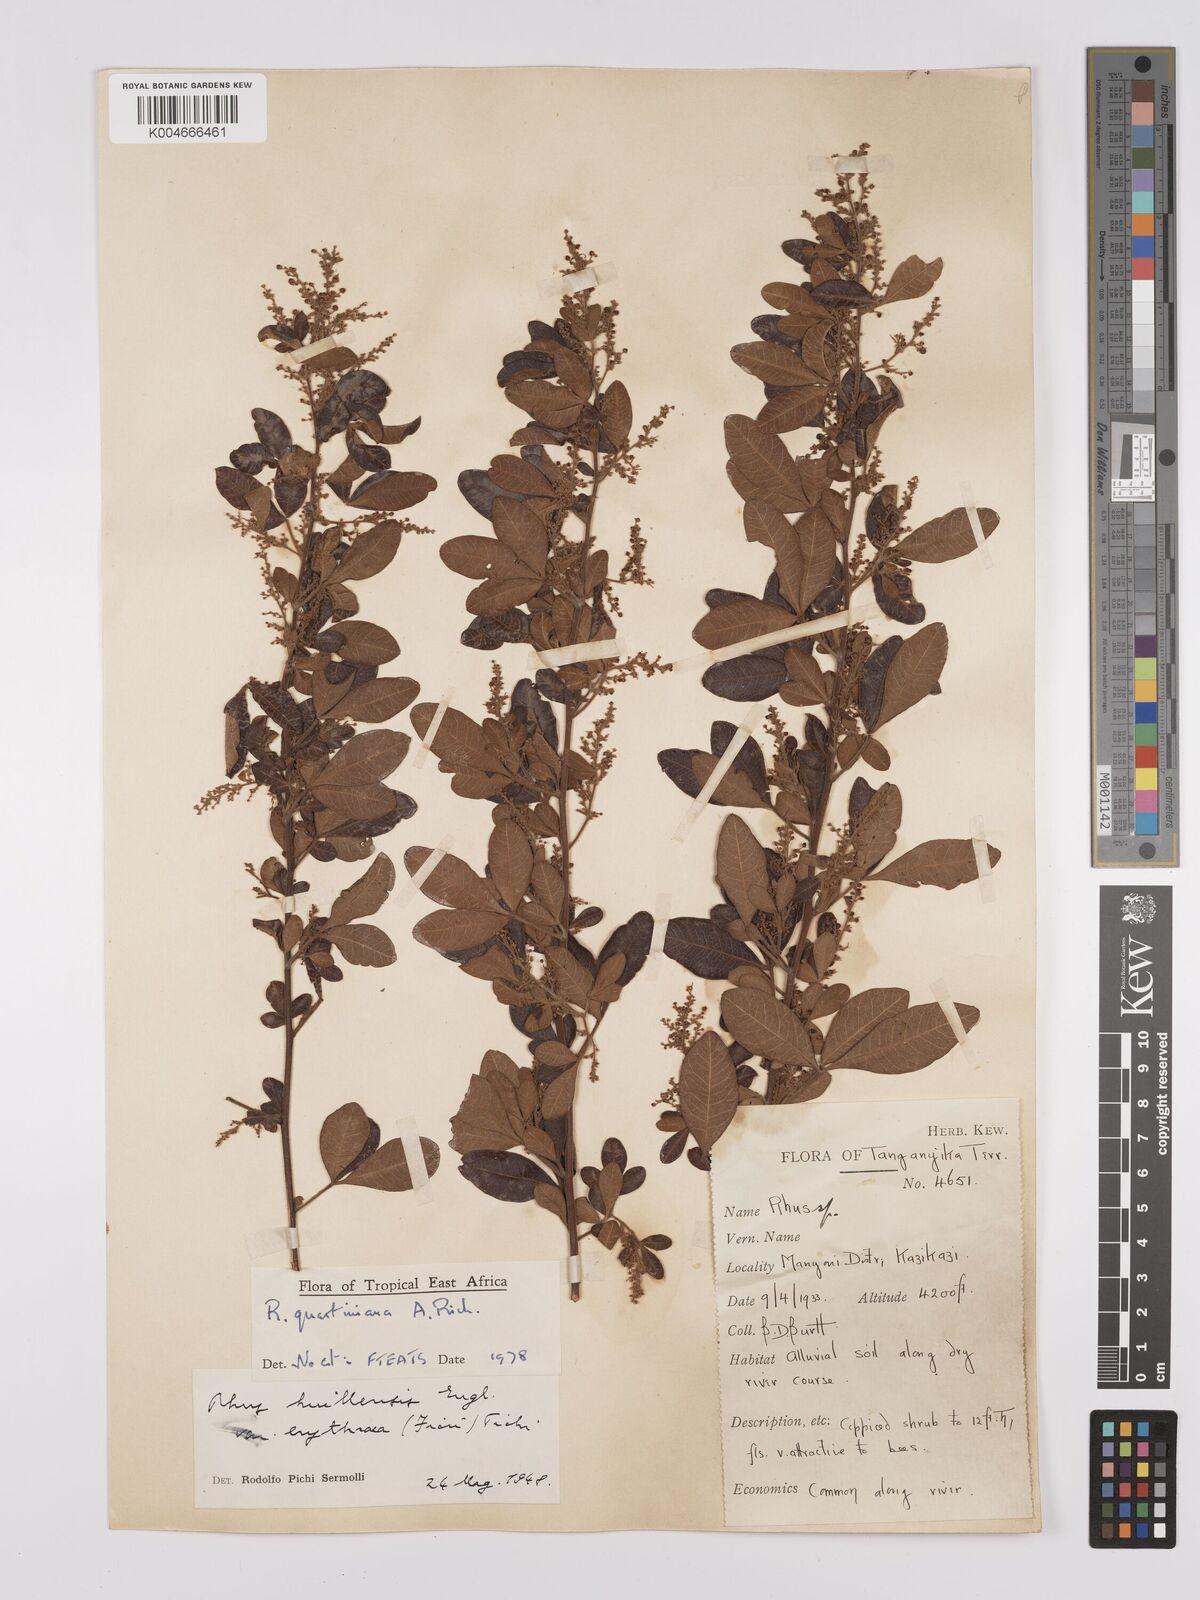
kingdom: Plantae
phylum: Tracheophyta
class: Magnoliopsida
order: Sapindales
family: Anacardiaceae
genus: Searsia
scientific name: Searsia quartiniana
